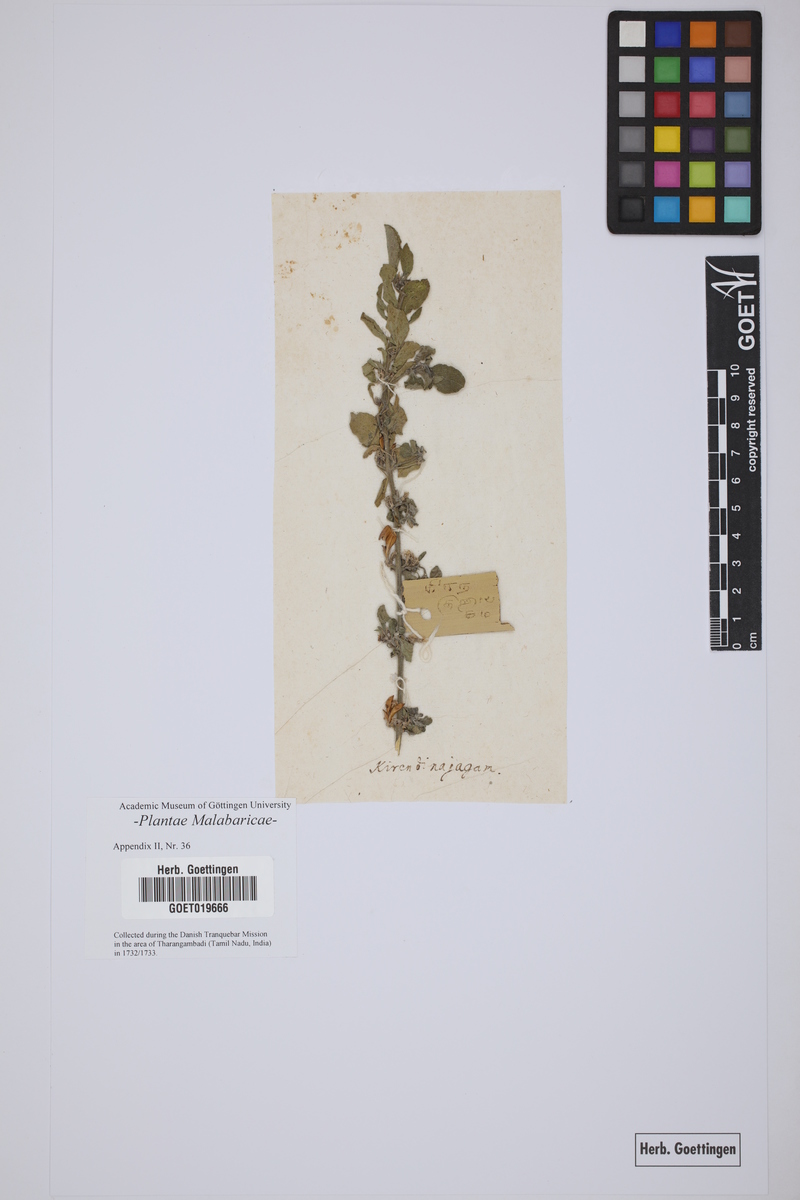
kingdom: Plantae
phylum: Tracheophyta
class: Magnoliopsida
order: Lamiales
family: Acanthaceae
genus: Ruellia
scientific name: Ruellia strepens
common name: Limestone wild petunia
